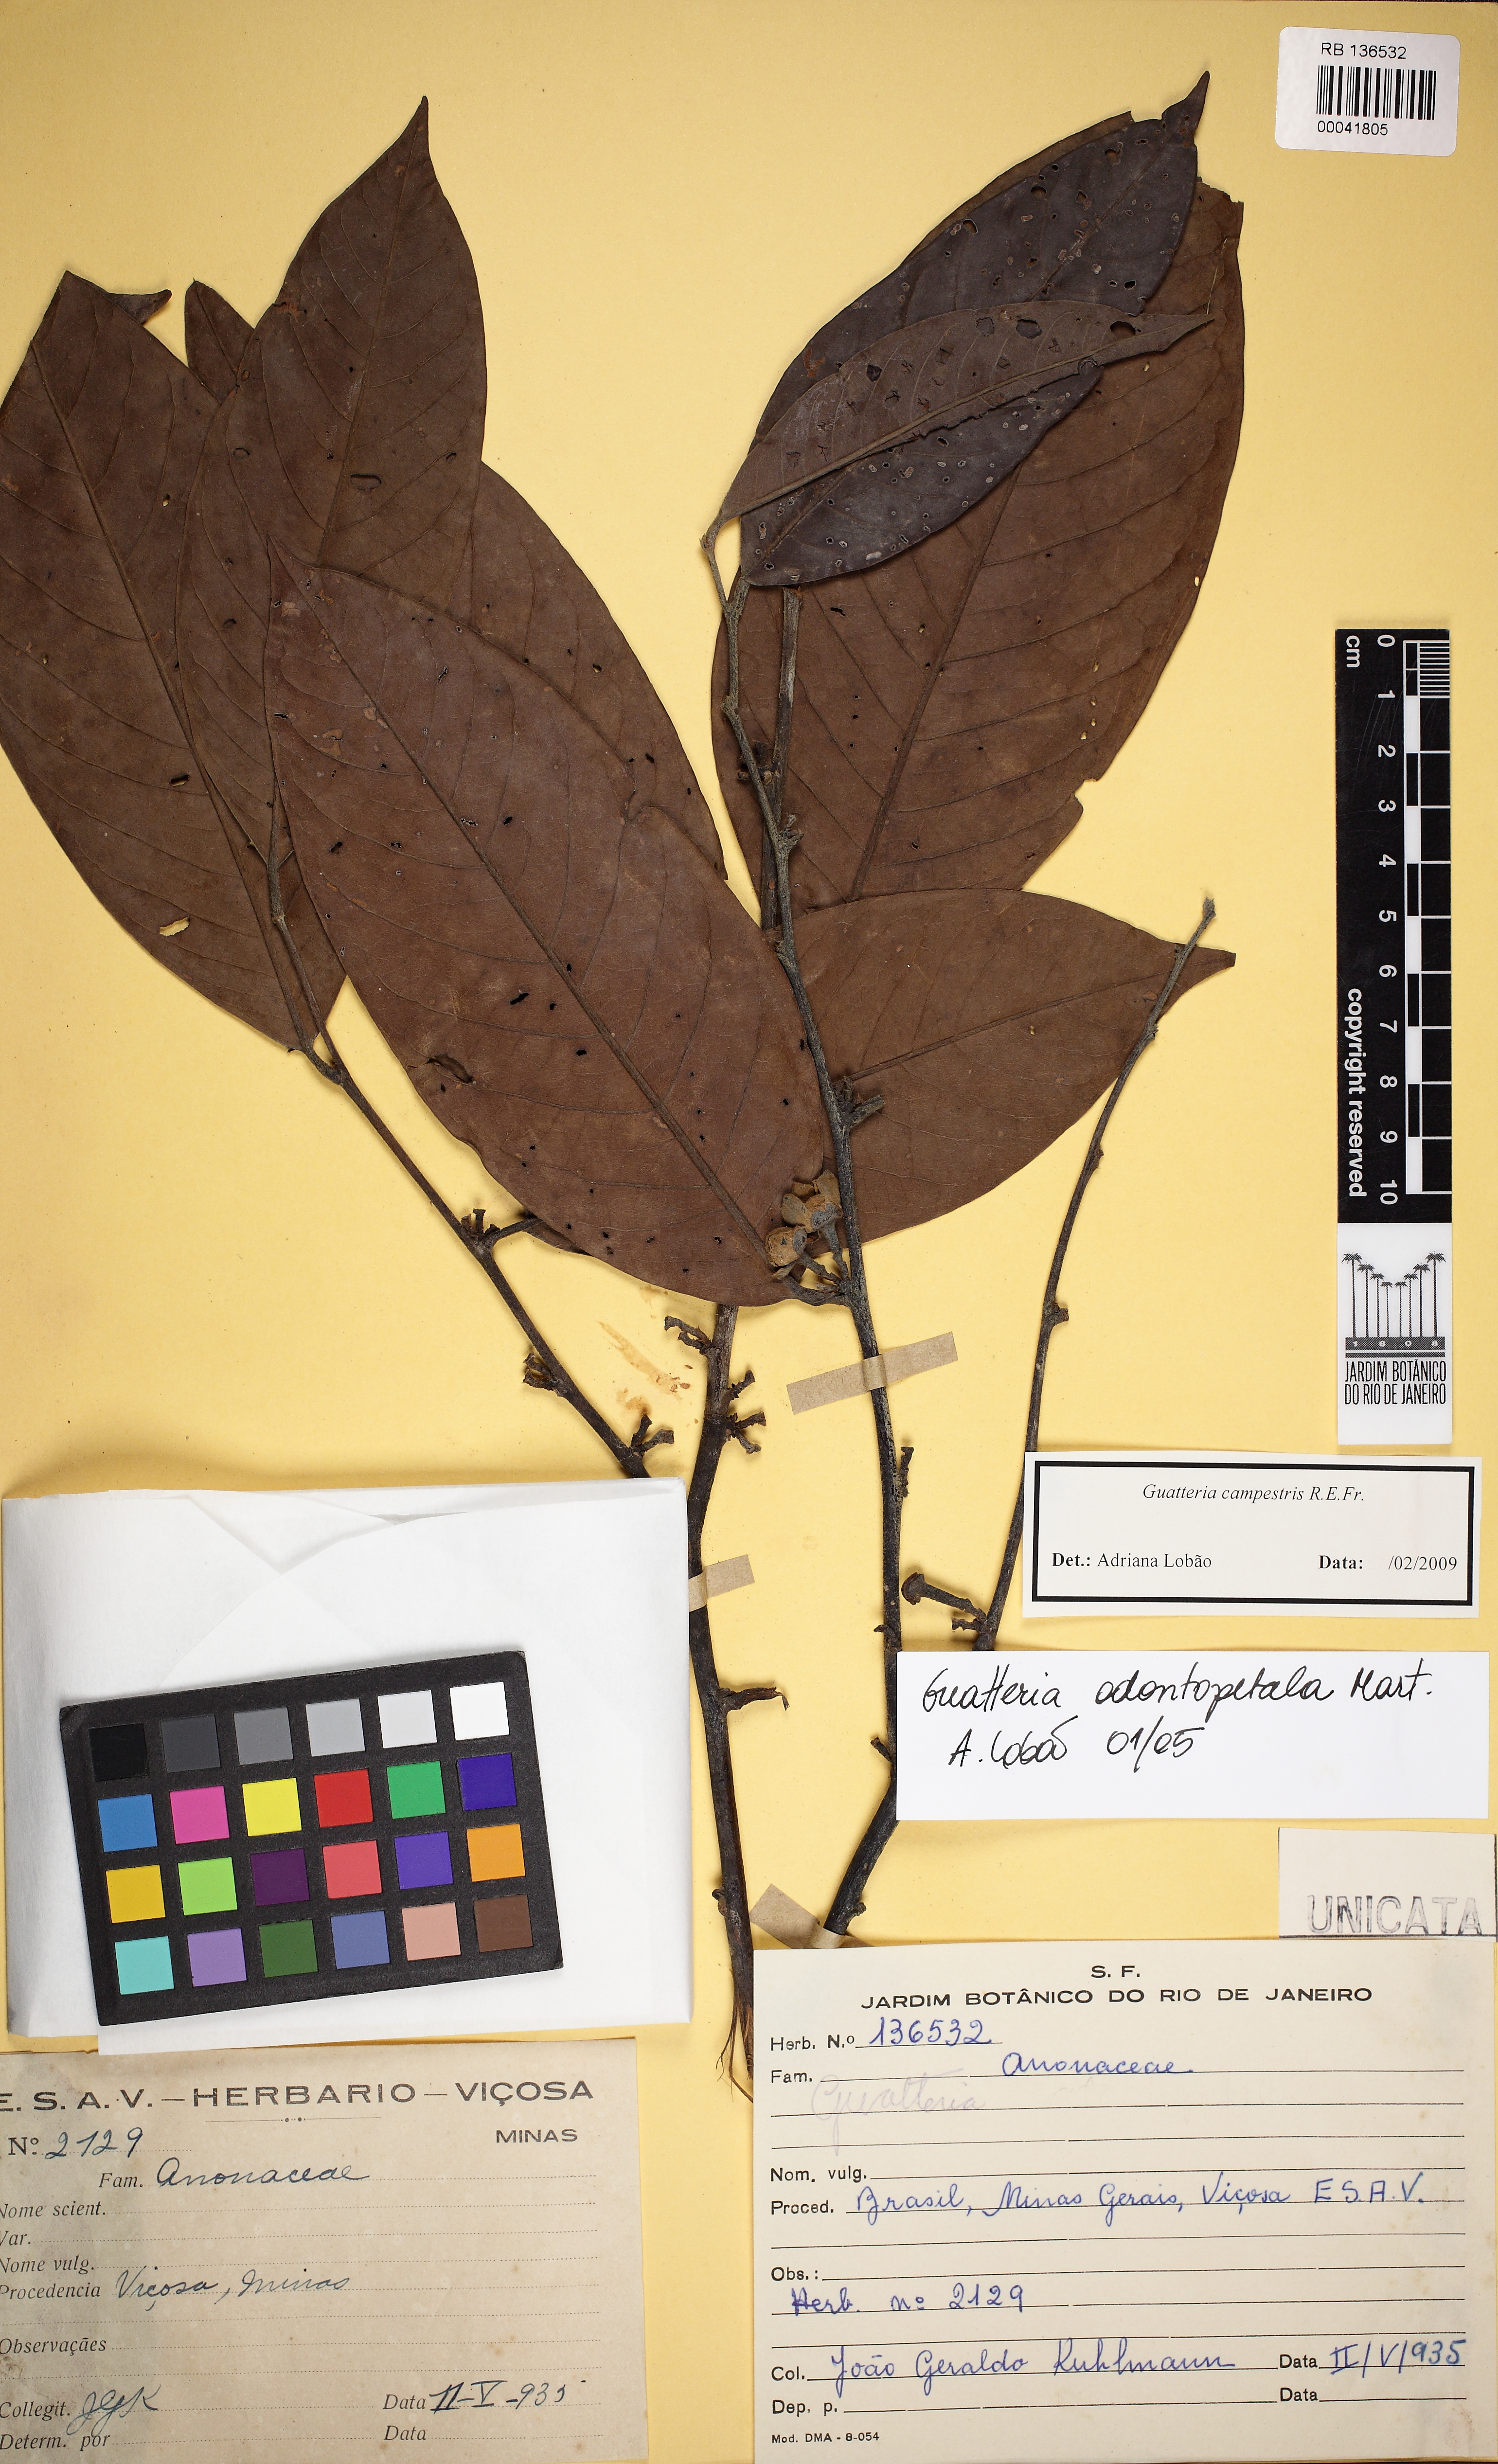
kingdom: Plantae
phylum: Tracheophyta
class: Magnoliopsida
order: Magnoliales
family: Annonaceae
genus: Guatteria
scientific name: Guatteria australis
